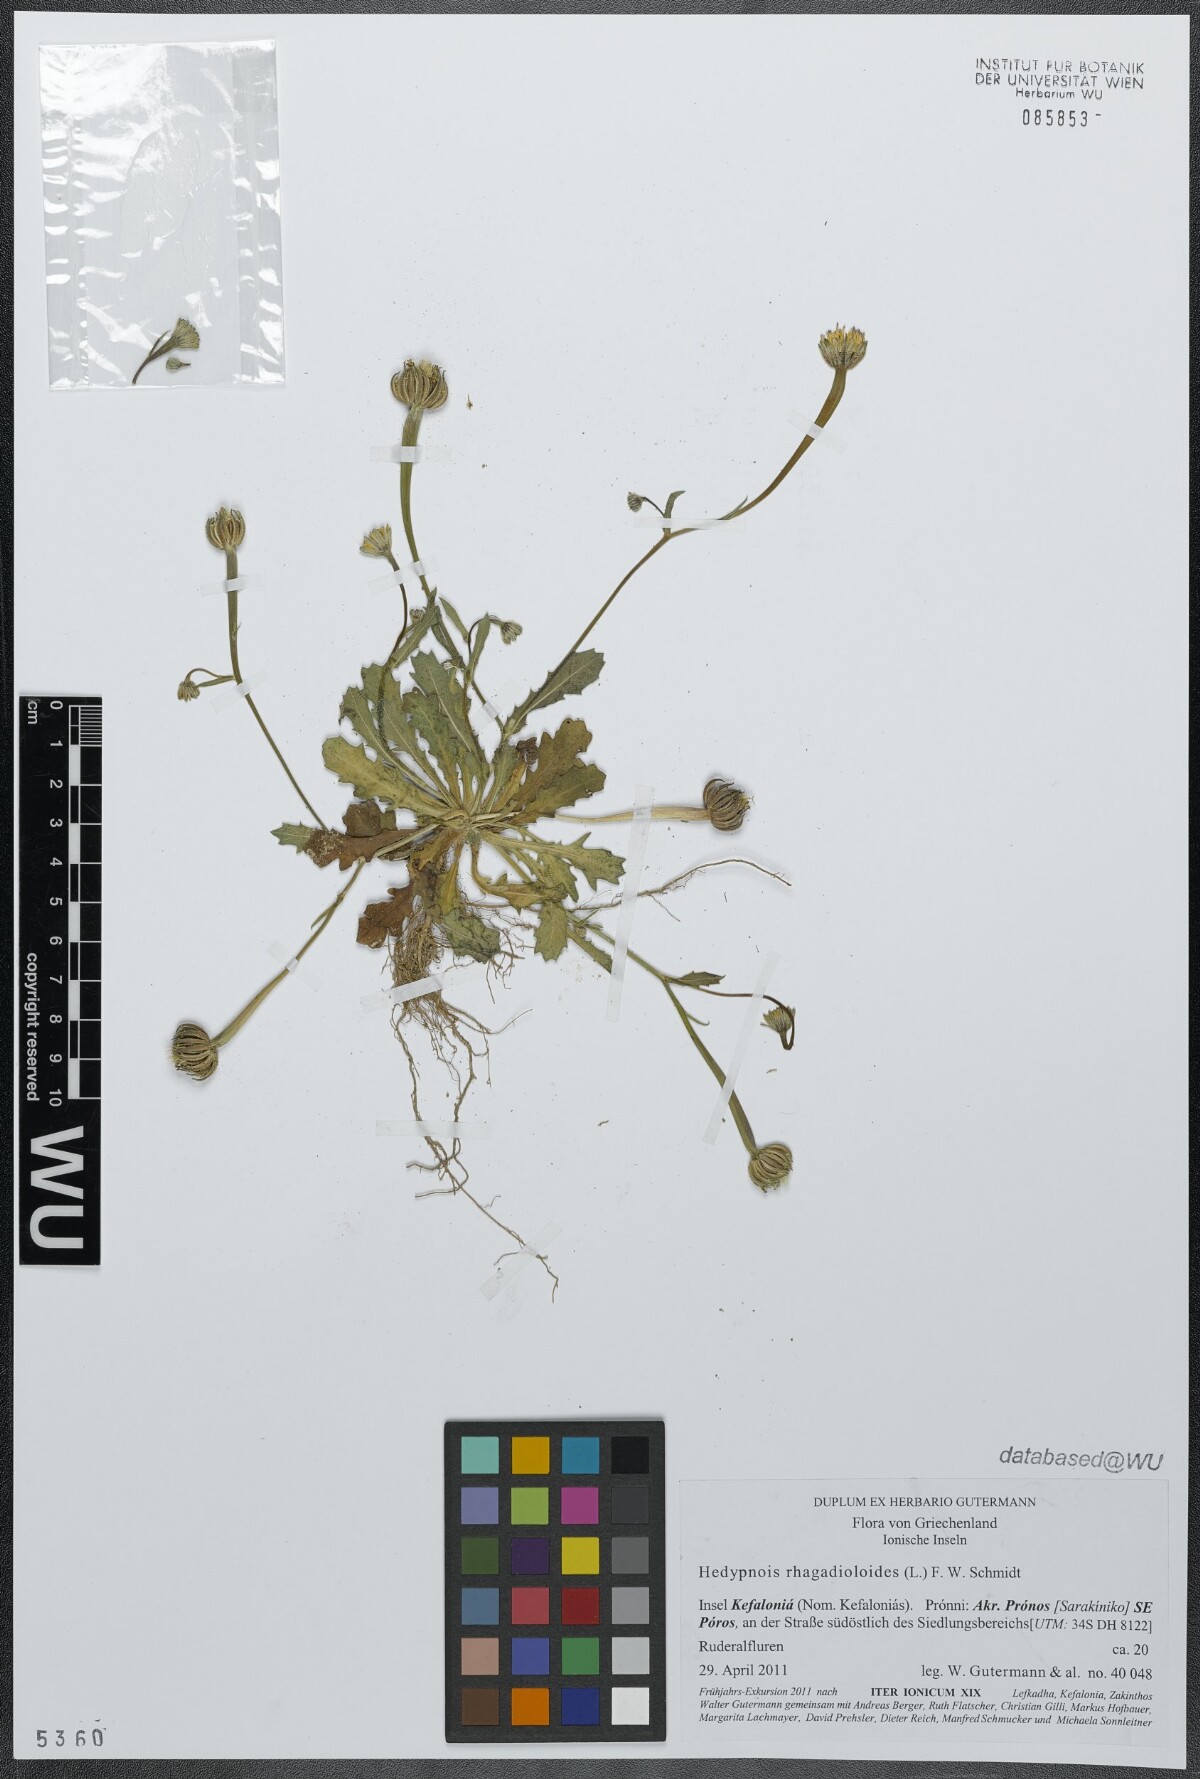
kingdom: Plantae
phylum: Tracheophyta
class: Magnoliopsida
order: Asterales
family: Asteraceae
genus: Hedypnois
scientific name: Hedypnois rhagadioloides
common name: Cretan weed
